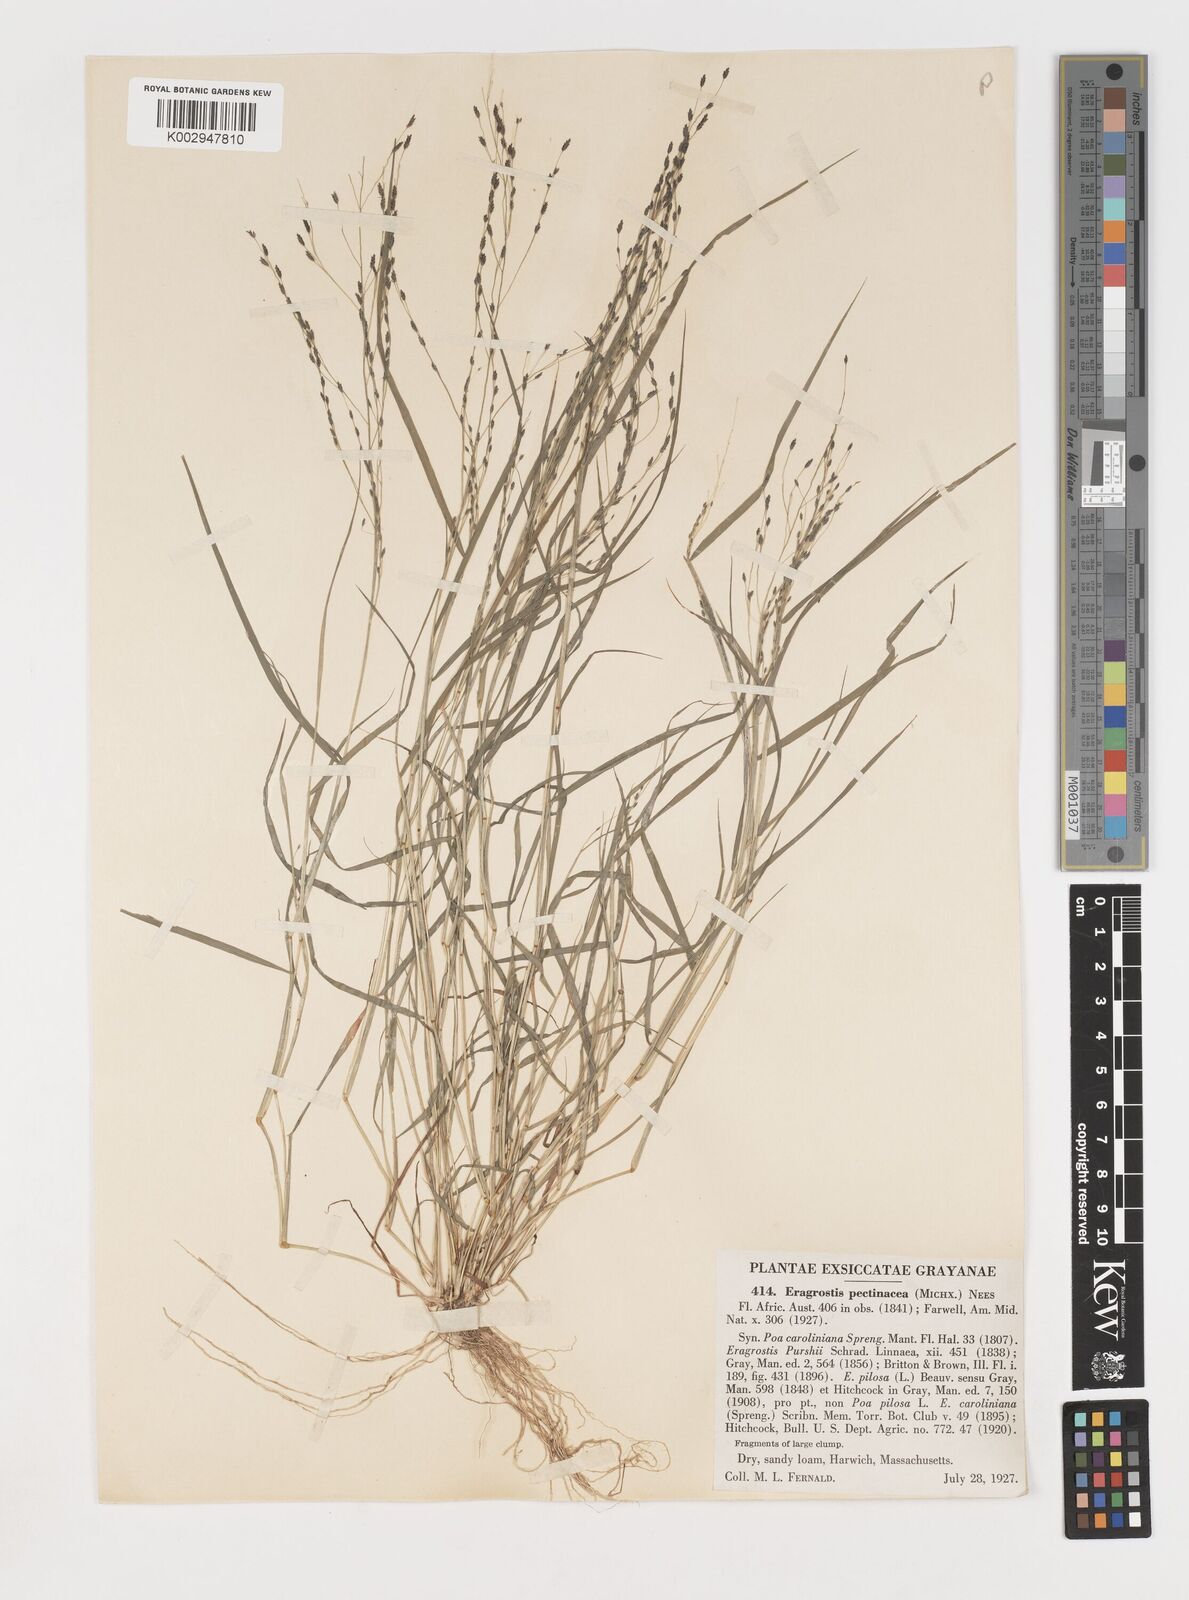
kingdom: Plantae
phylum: Tracheophyta
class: Liliopsida
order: Poales
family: Poaceae
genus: Eragrostis
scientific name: Eragrostis pectinacea
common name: Tufted lovegrass
